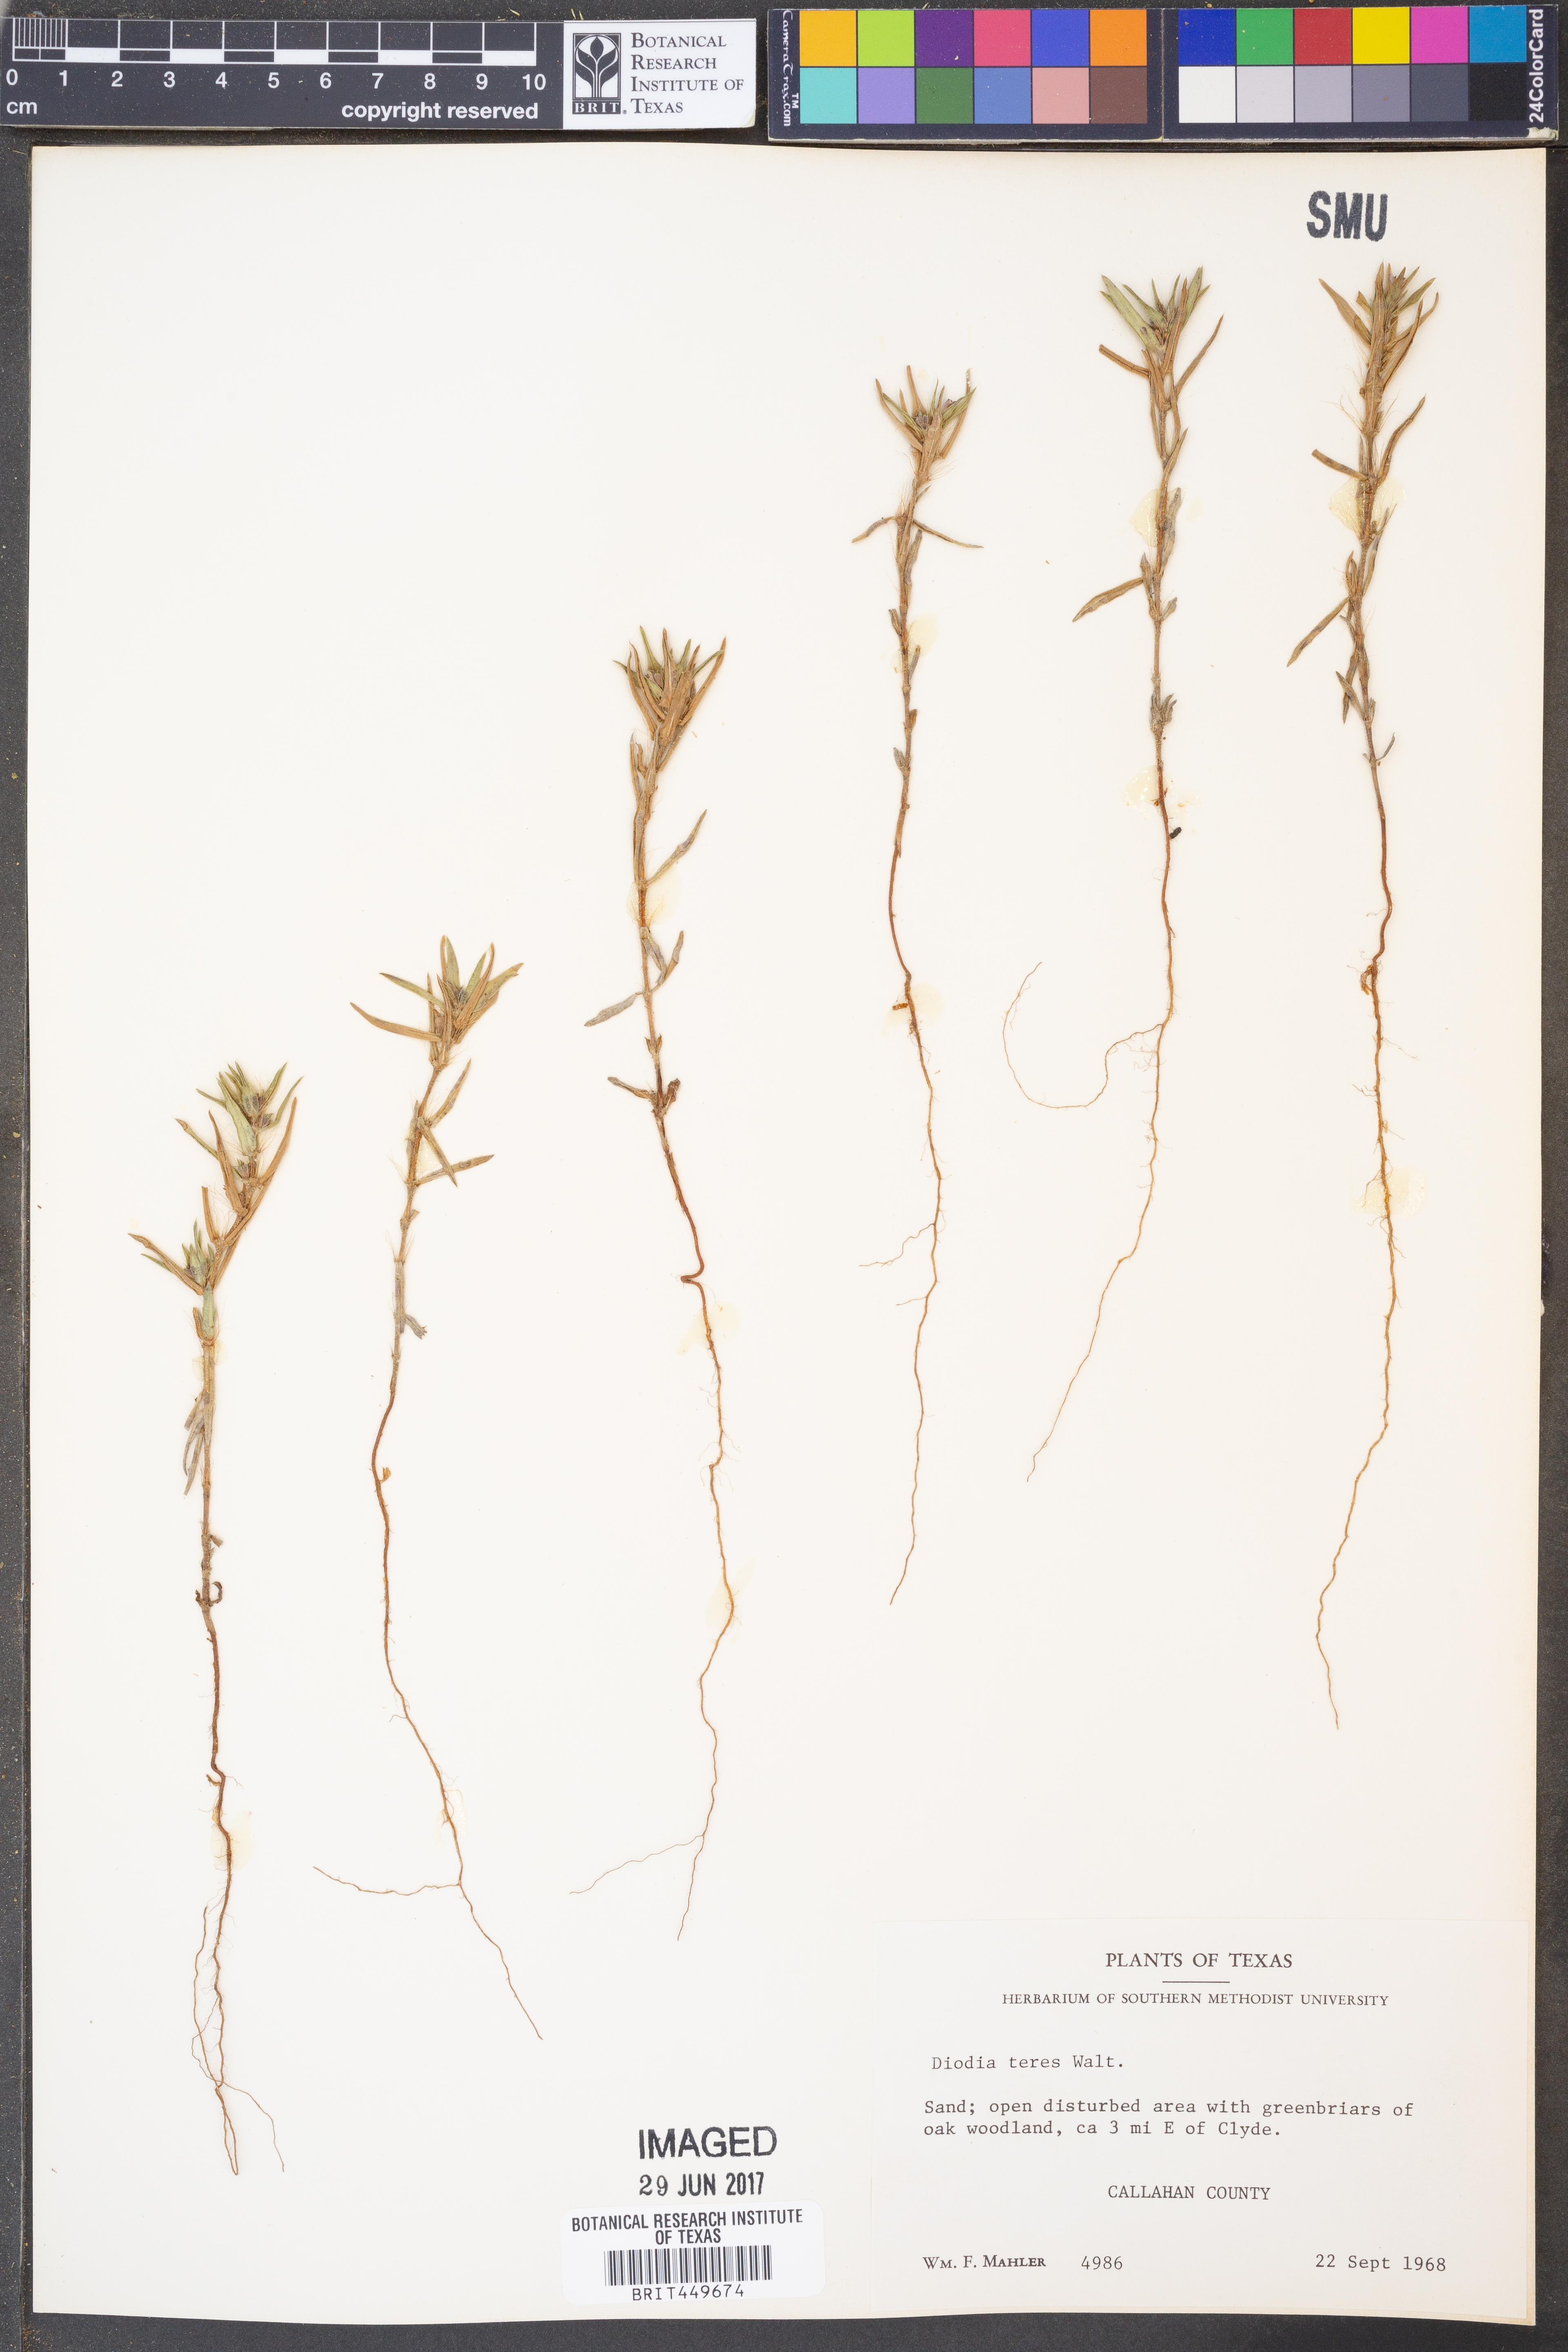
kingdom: Plantae
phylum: Tracheophyta
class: Magnoliopsida
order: Gentianales
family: Rubiaceae
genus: Hexasepalum
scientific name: Hexasepalum teres
